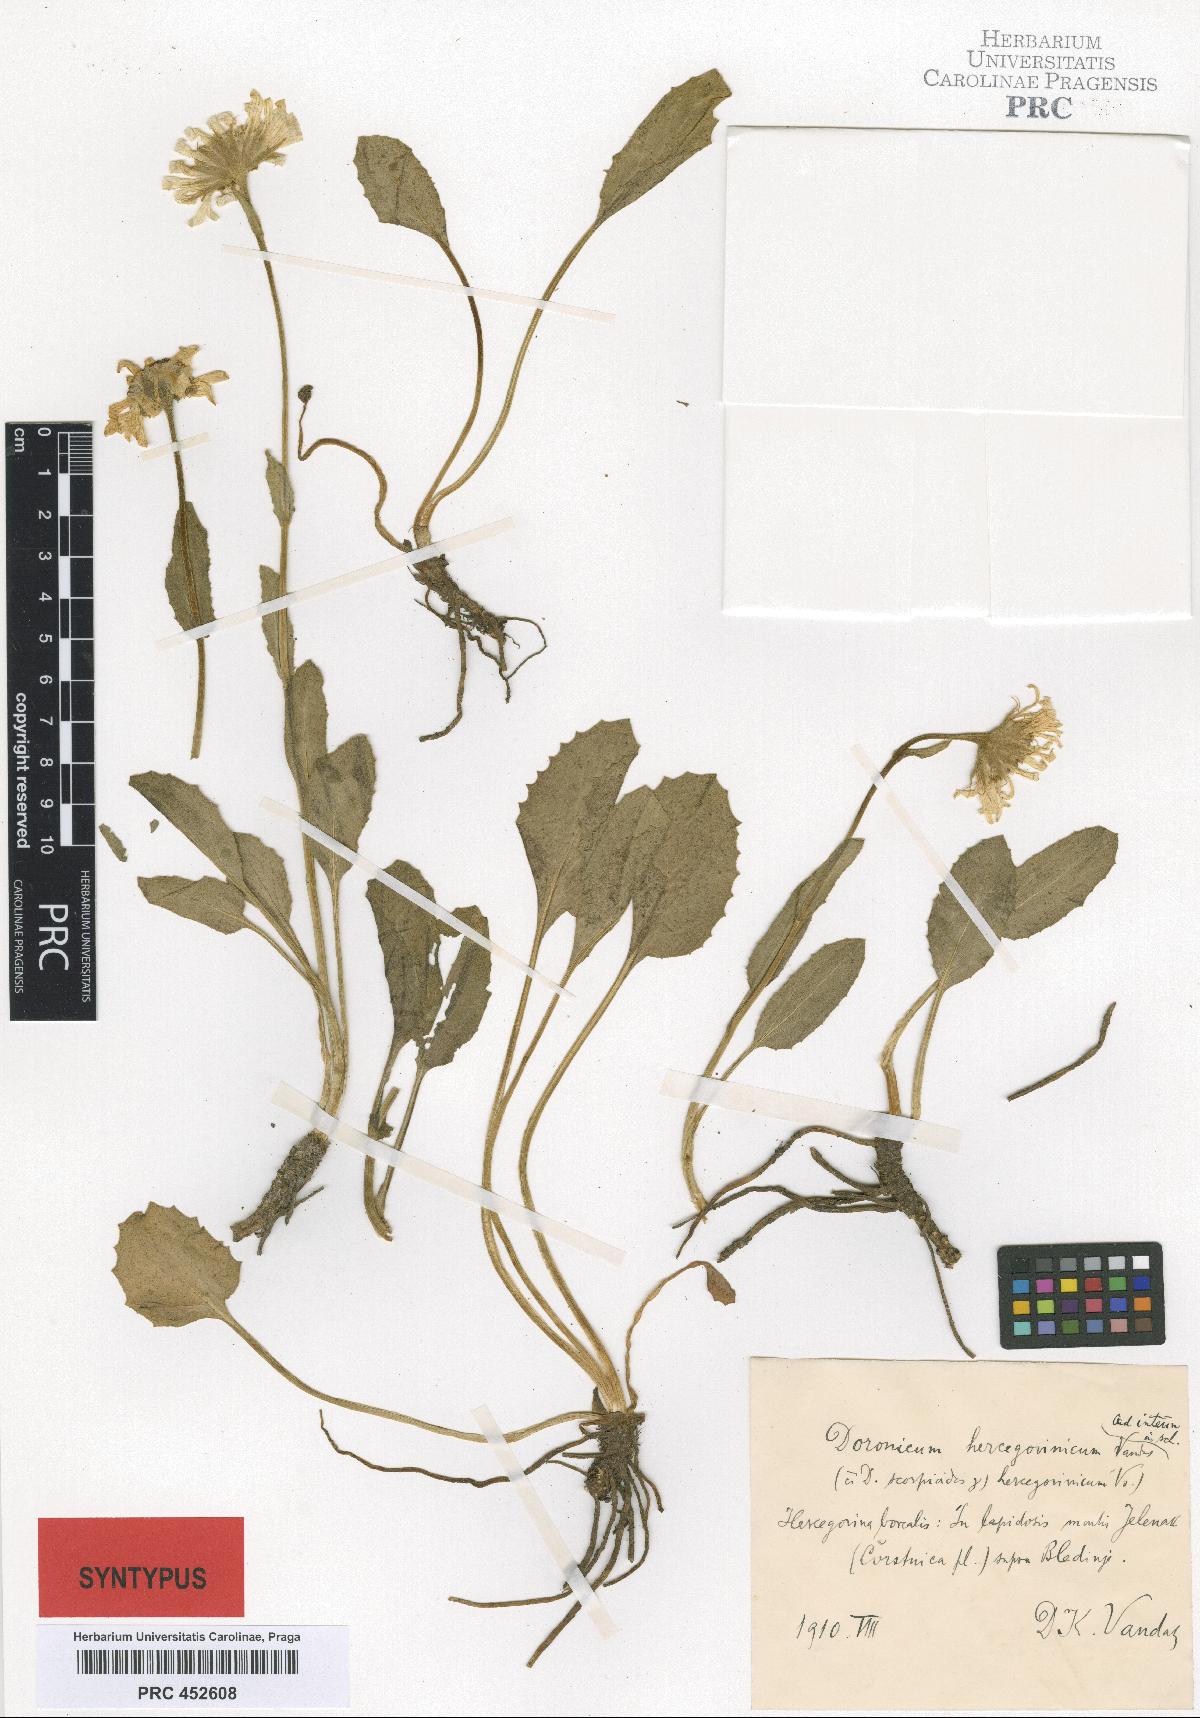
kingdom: Plantae
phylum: Tracheophyta
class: Magnoliopsida
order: Asterales
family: Asteraceae
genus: Doronicum
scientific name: Doronicum grandiflorum
